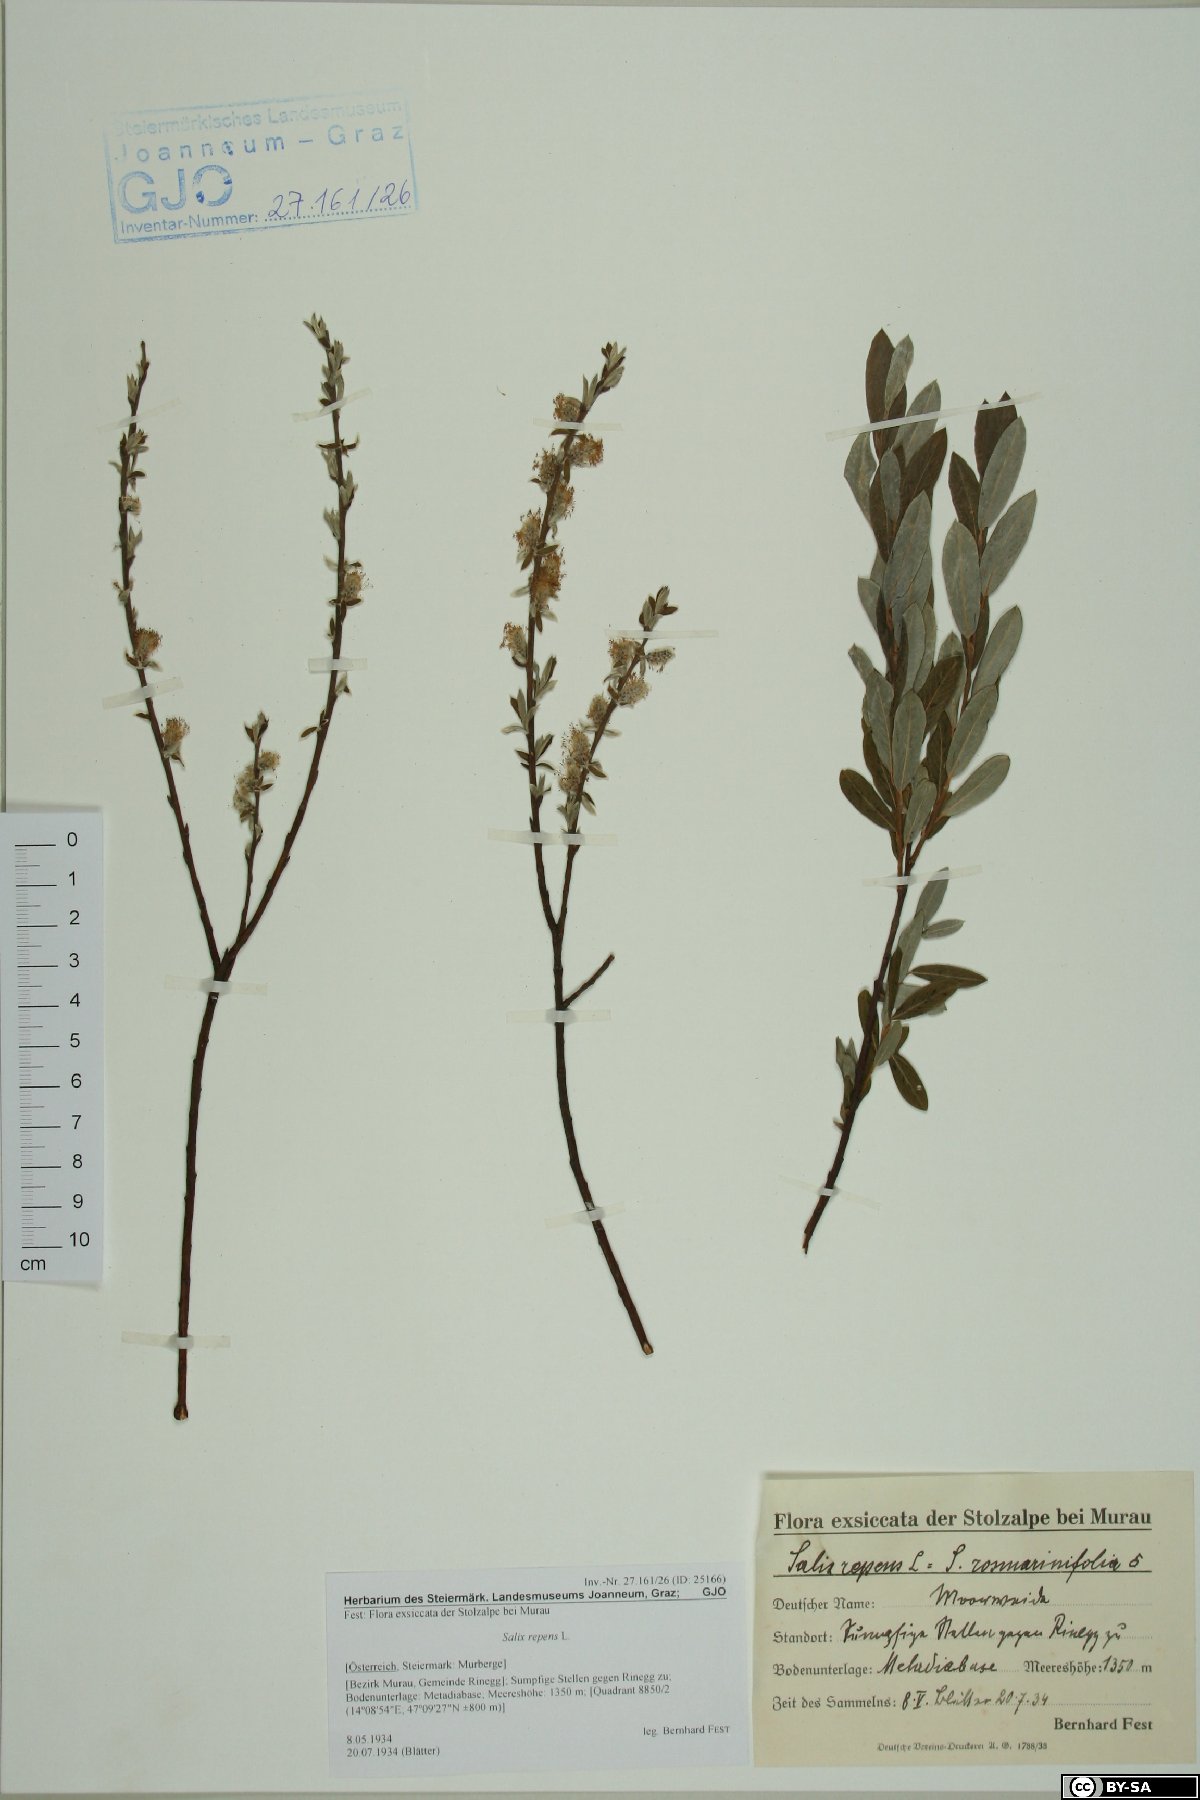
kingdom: Plantae
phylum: Tracheophyta
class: Magnoliopsida
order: Malpighiales
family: Salicaceae
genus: Salix
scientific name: Salix repens
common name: Creeping willow
